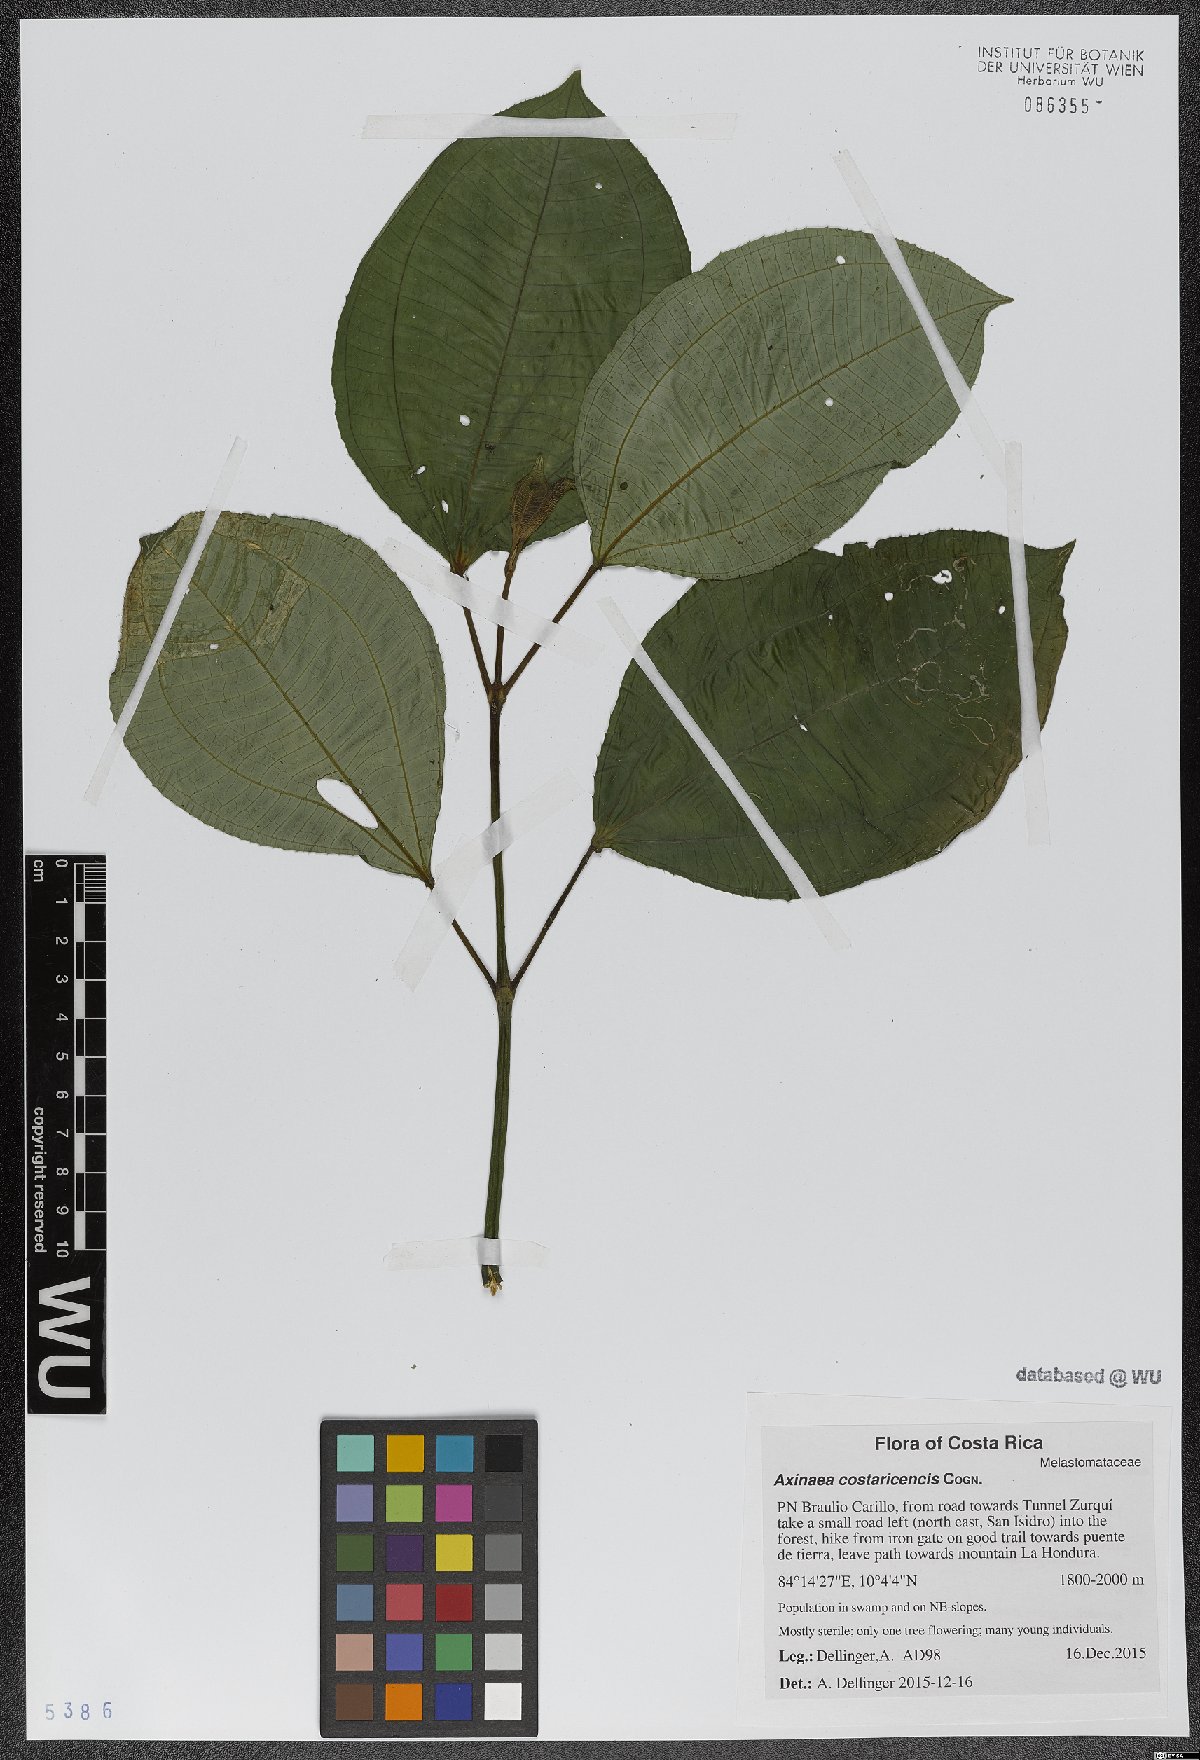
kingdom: Plantae
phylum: Tracheophyta
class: Magnoliopsida
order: Myrtales
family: Melastomataceae
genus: Axinaea
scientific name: Axinaea costaricencis
